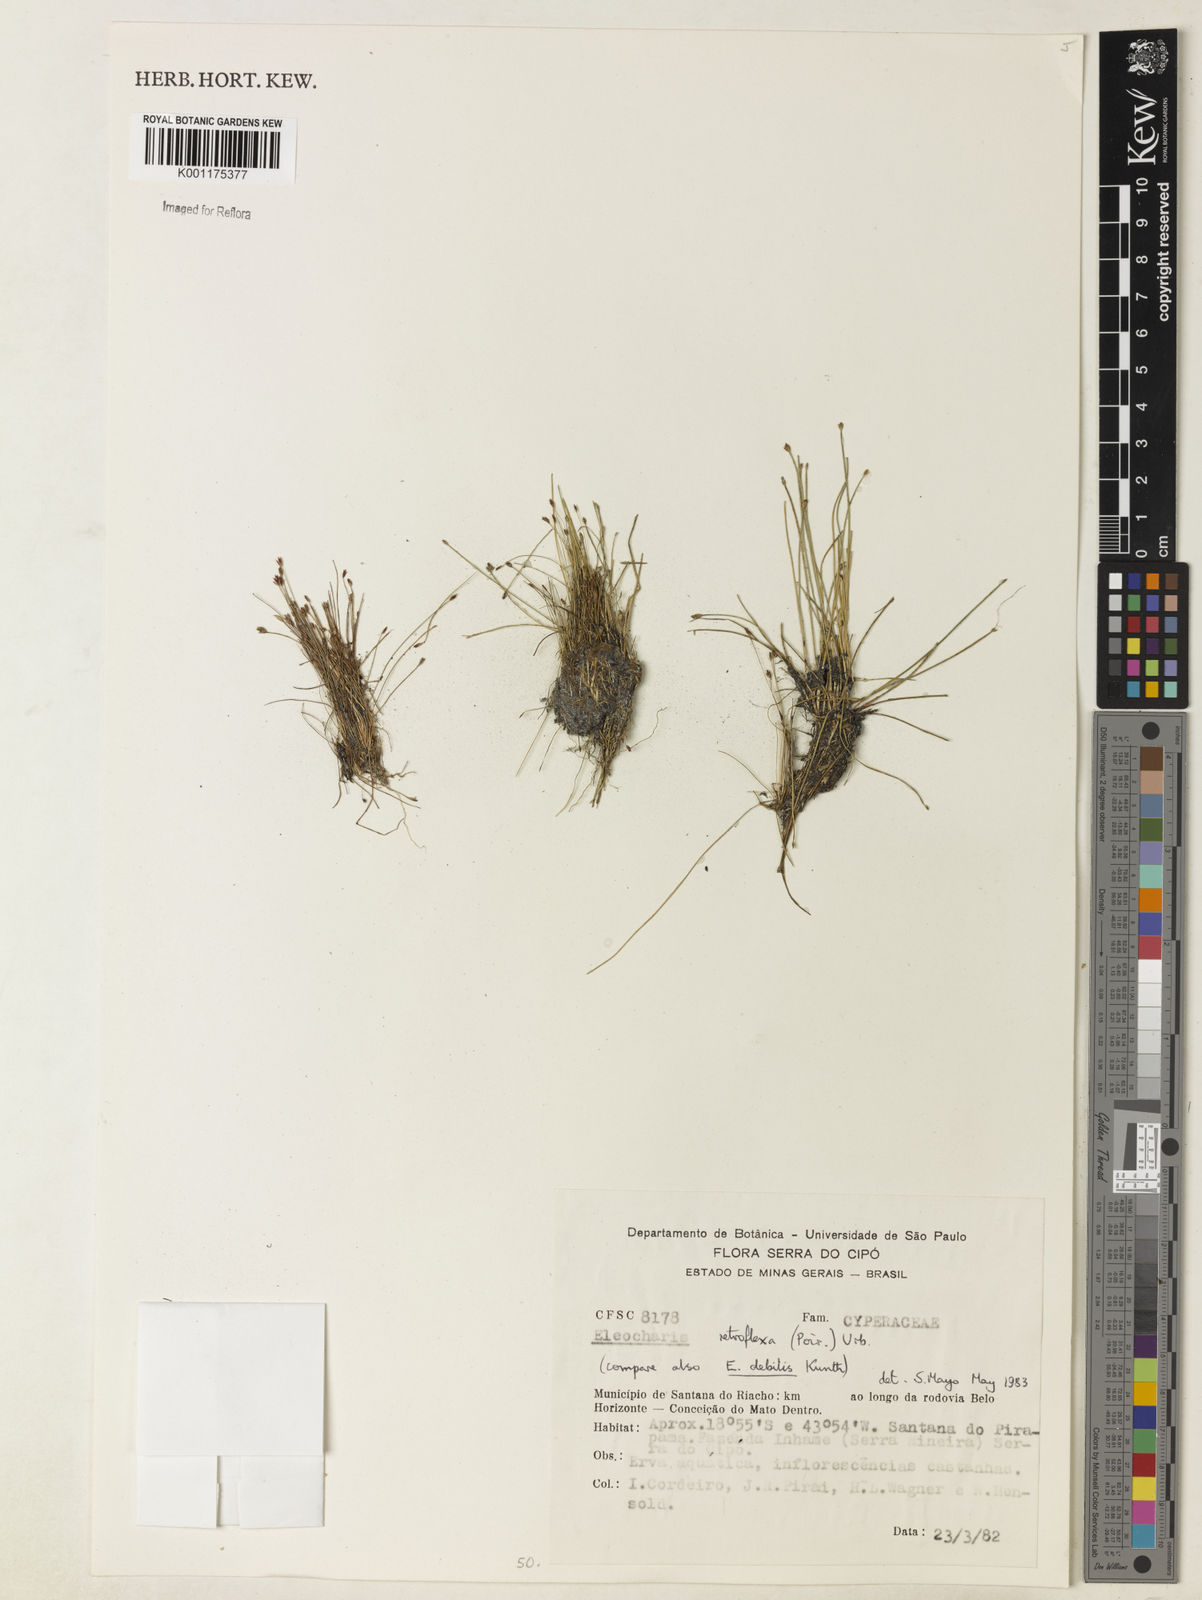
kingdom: Plantae
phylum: Tracheophyta
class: Liliopsida
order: Poales
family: Cyperaceae
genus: Eleocharis
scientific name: Eleocharis retroflexa
